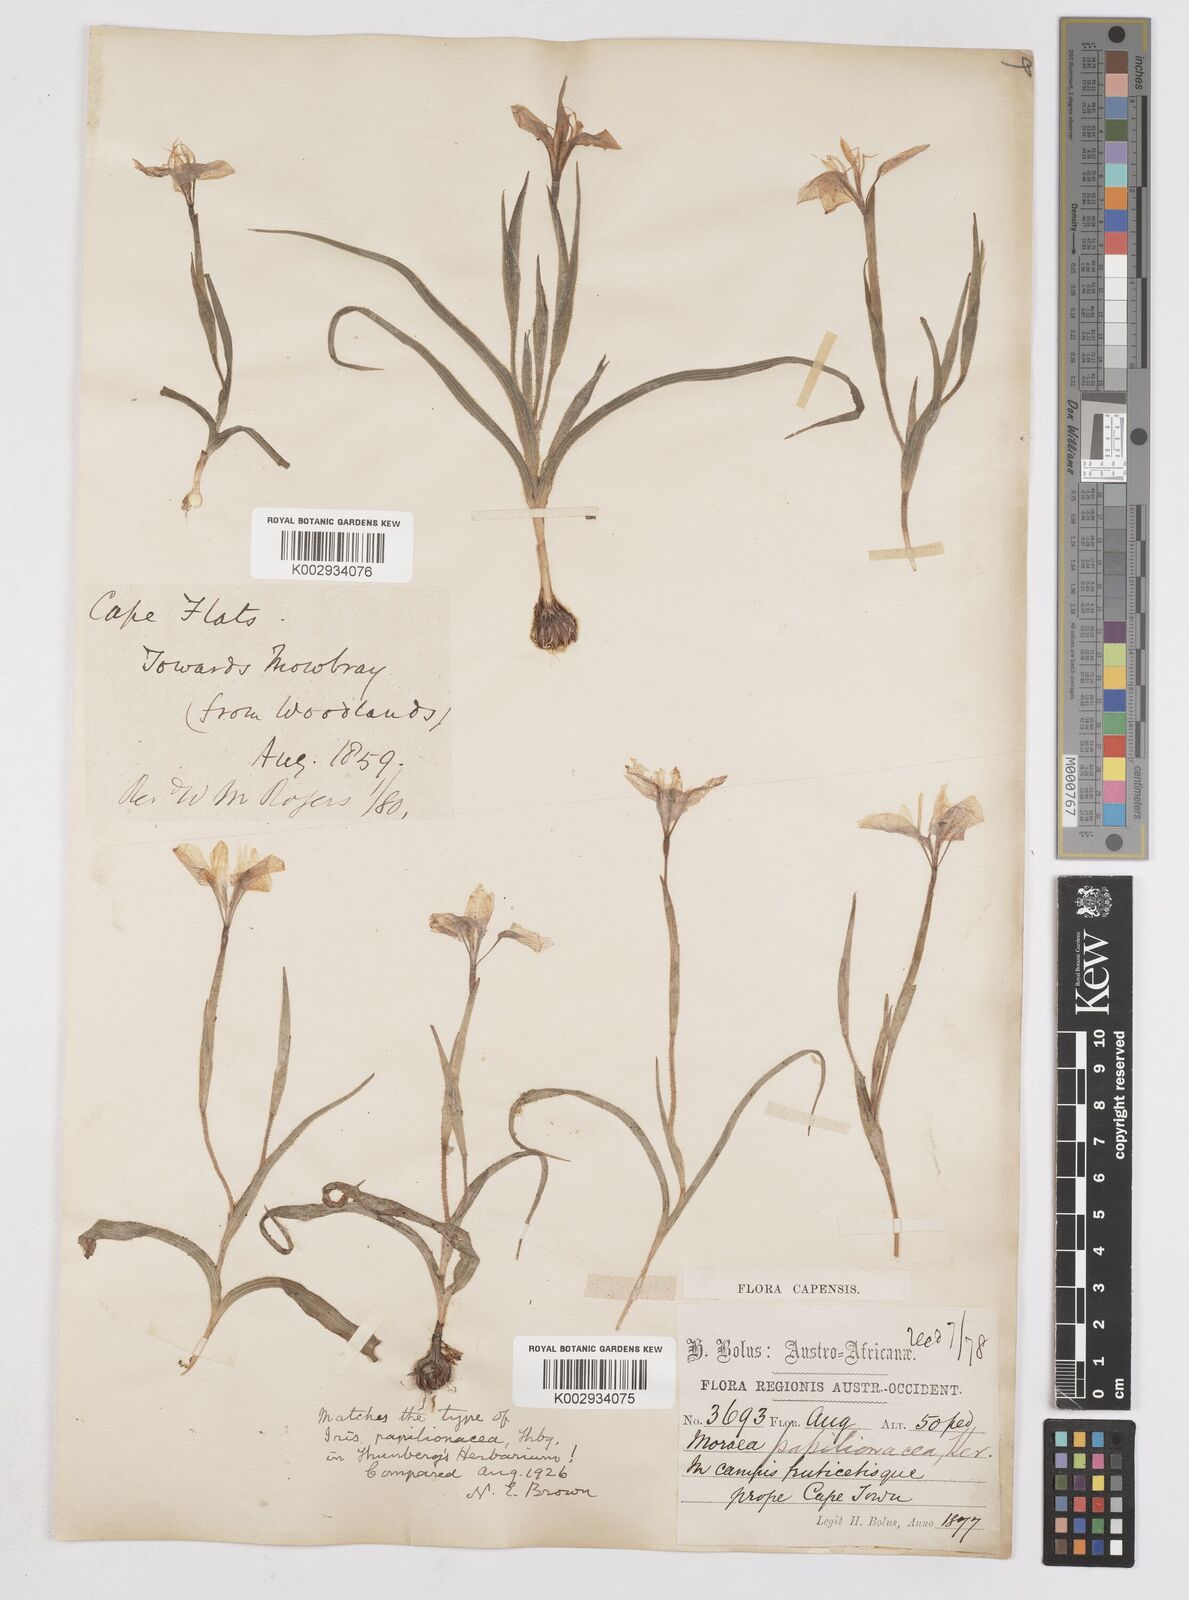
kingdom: Plantae
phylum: Tracheophyta
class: Liliopsida
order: Asparagales
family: Iridaceae
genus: Moraea
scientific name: Moraea papilionacea
